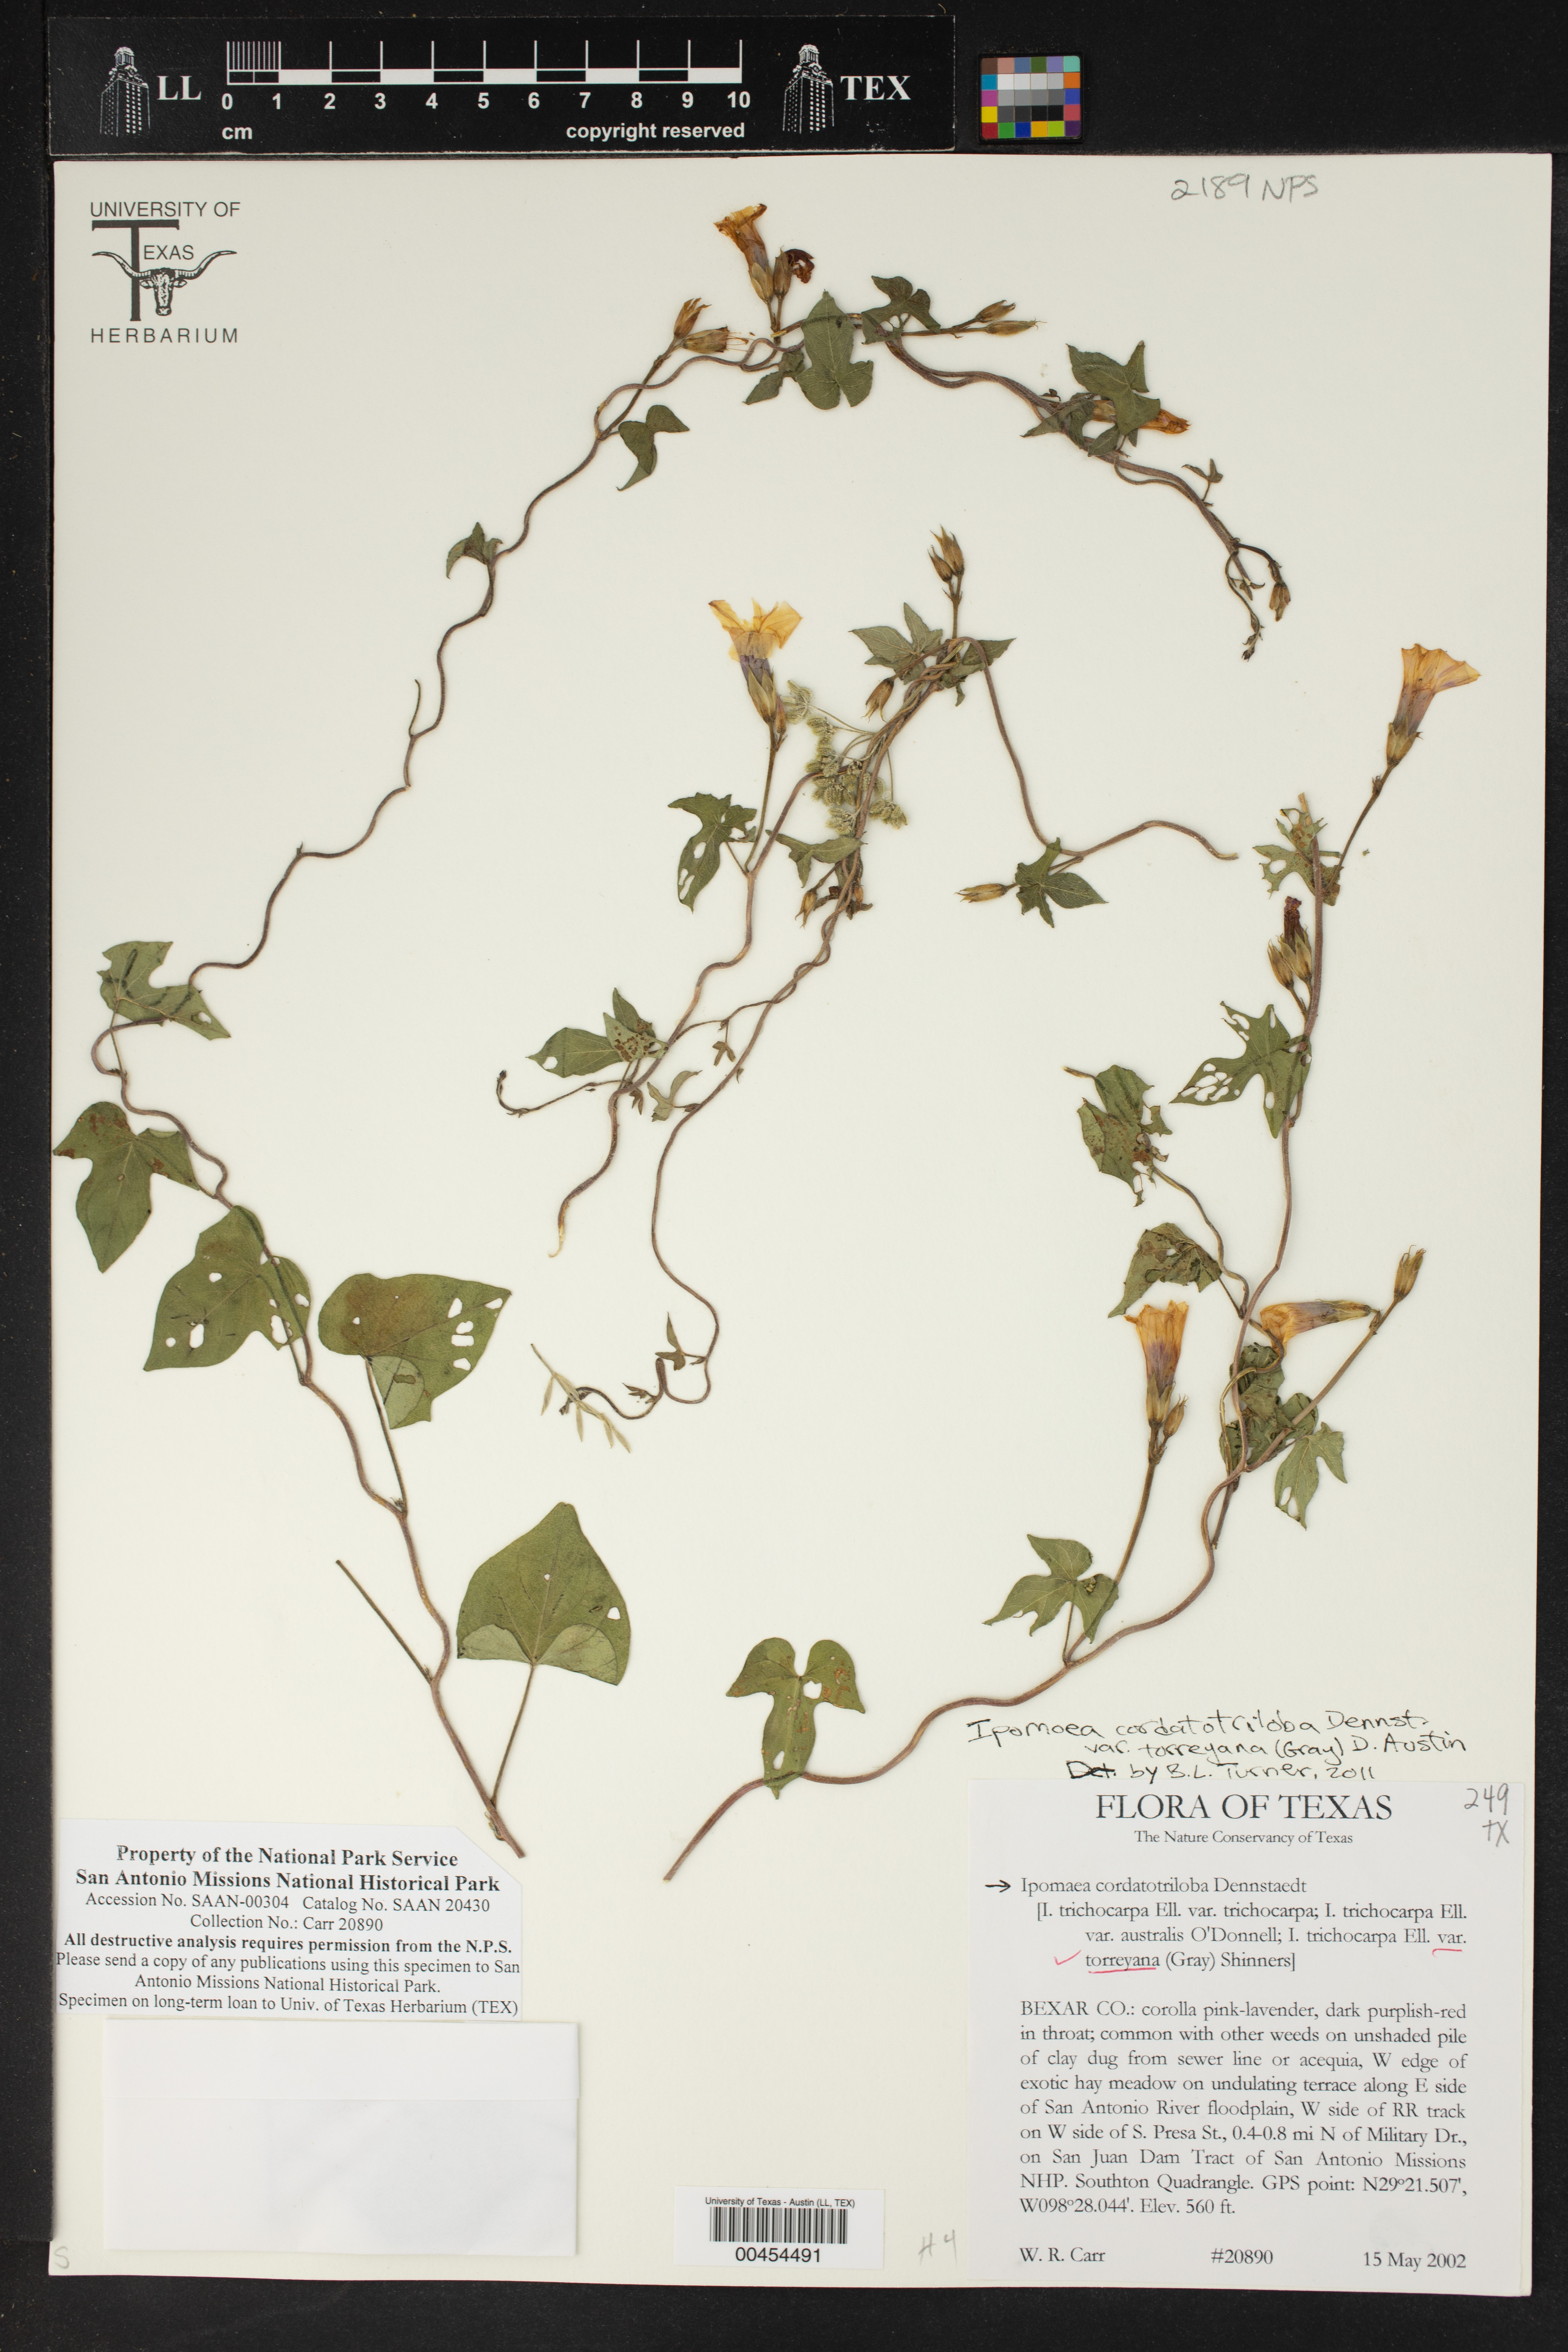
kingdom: Plantae
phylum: Tracheophyta
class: Magnoliopsida
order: Solanales
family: Convolvulaceae
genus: Ipomoea
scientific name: Ipomoea cordatotriloba
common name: Cotton morning glory
